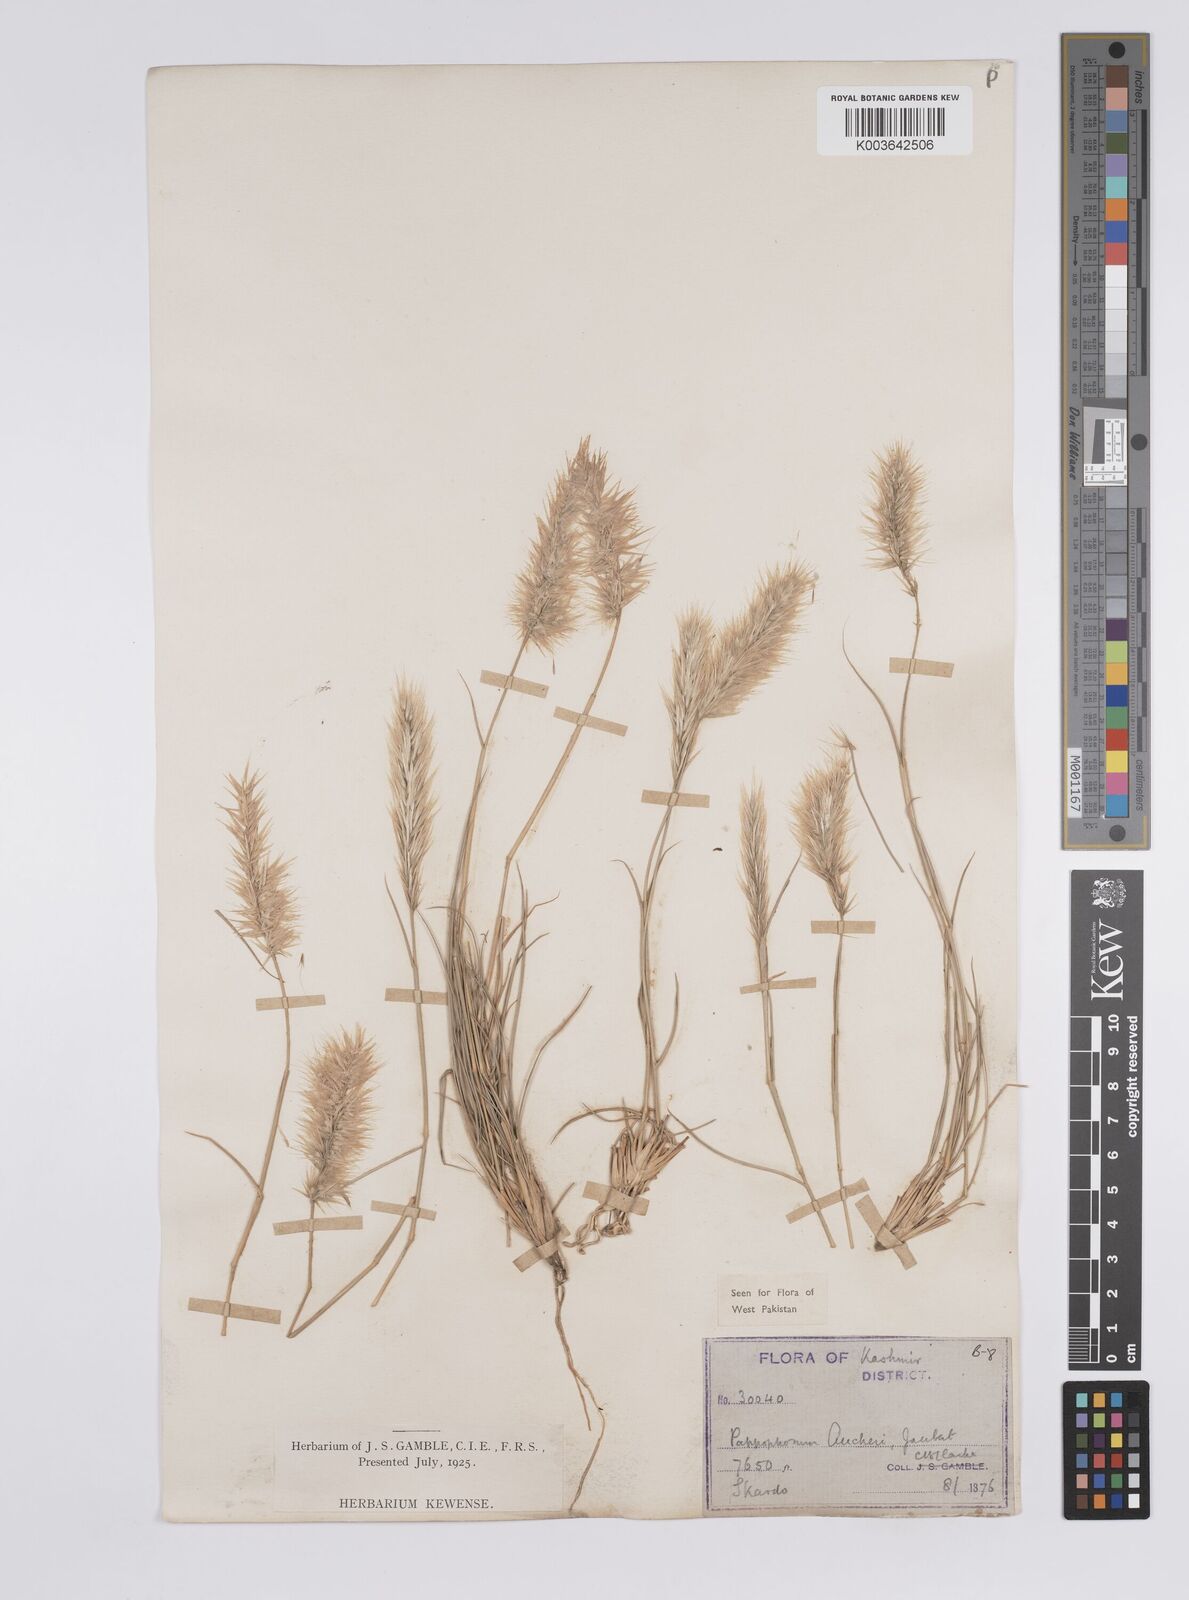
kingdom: Plantae
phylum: Tracheophyta
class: Liliopsida
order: Poales
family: Poaceae
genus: Enneapogon
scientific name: Enneapogon persicus
